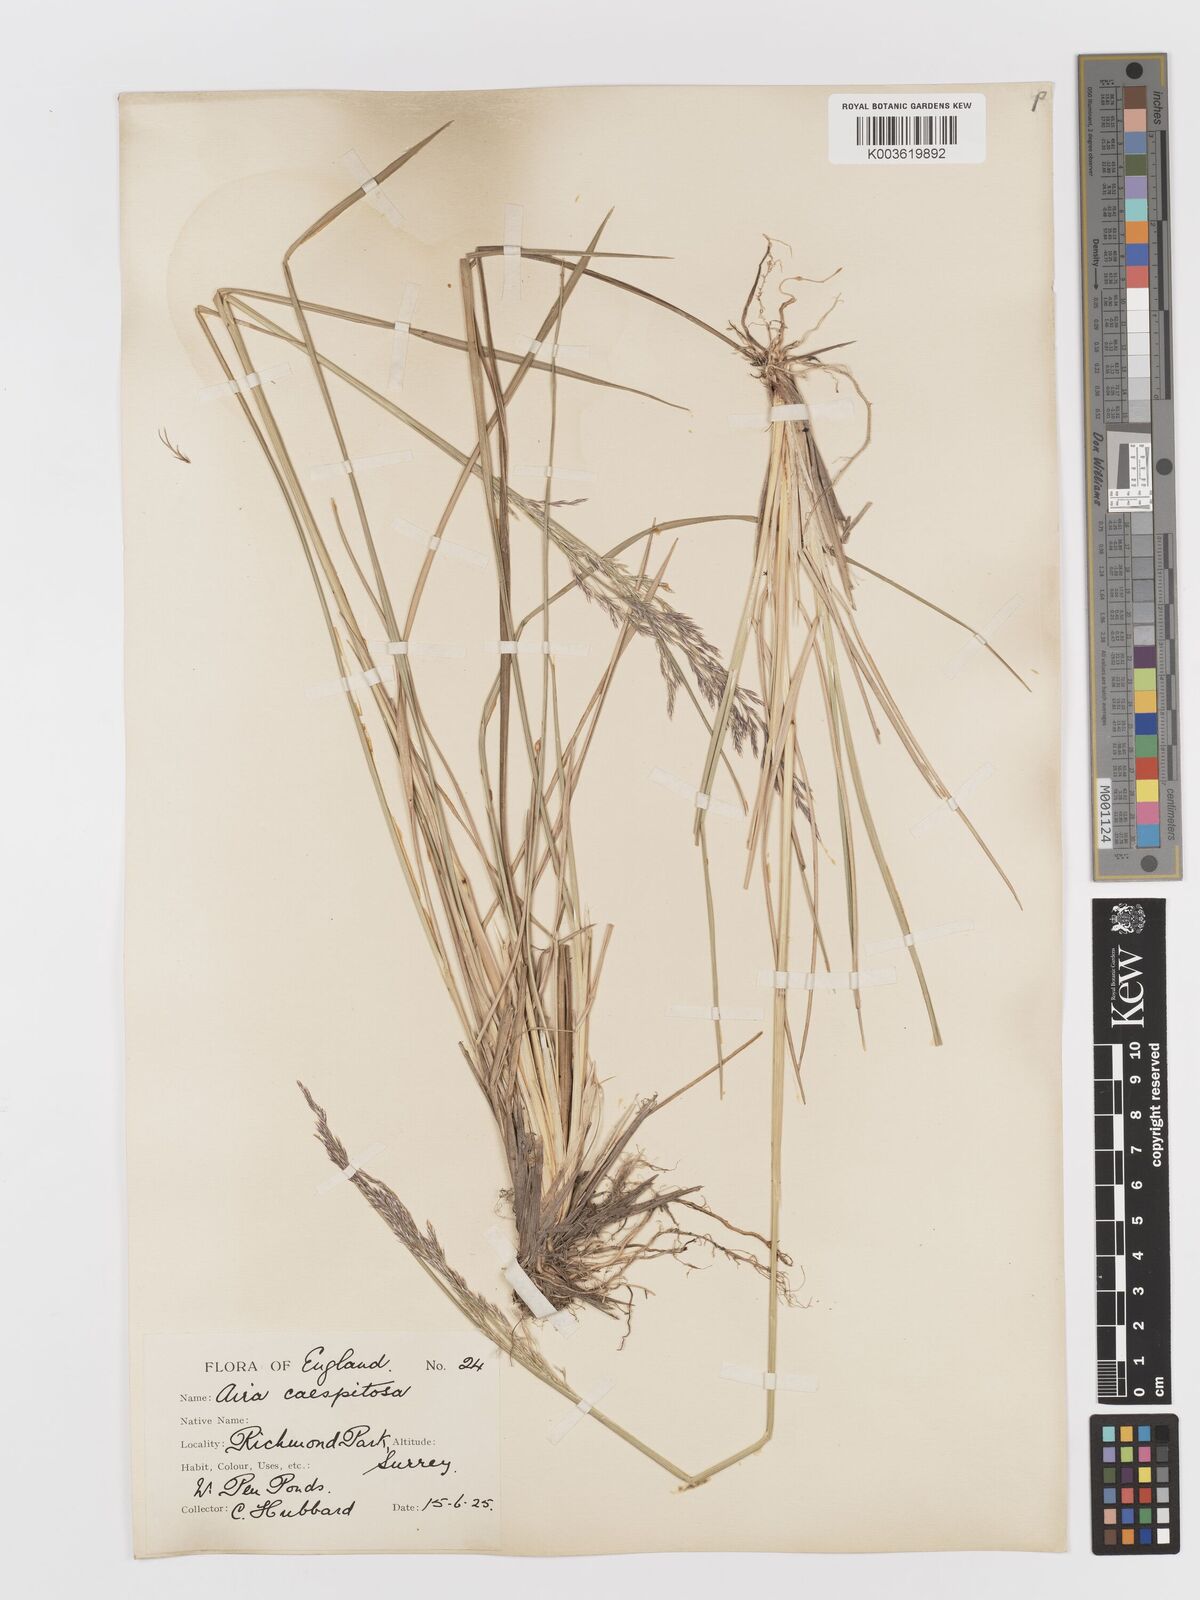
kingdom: Plantae
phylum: Tracheophyta
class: Liliopsida
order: Poales
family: Poaceae
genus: Deschampsia
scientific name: Deschampsia
